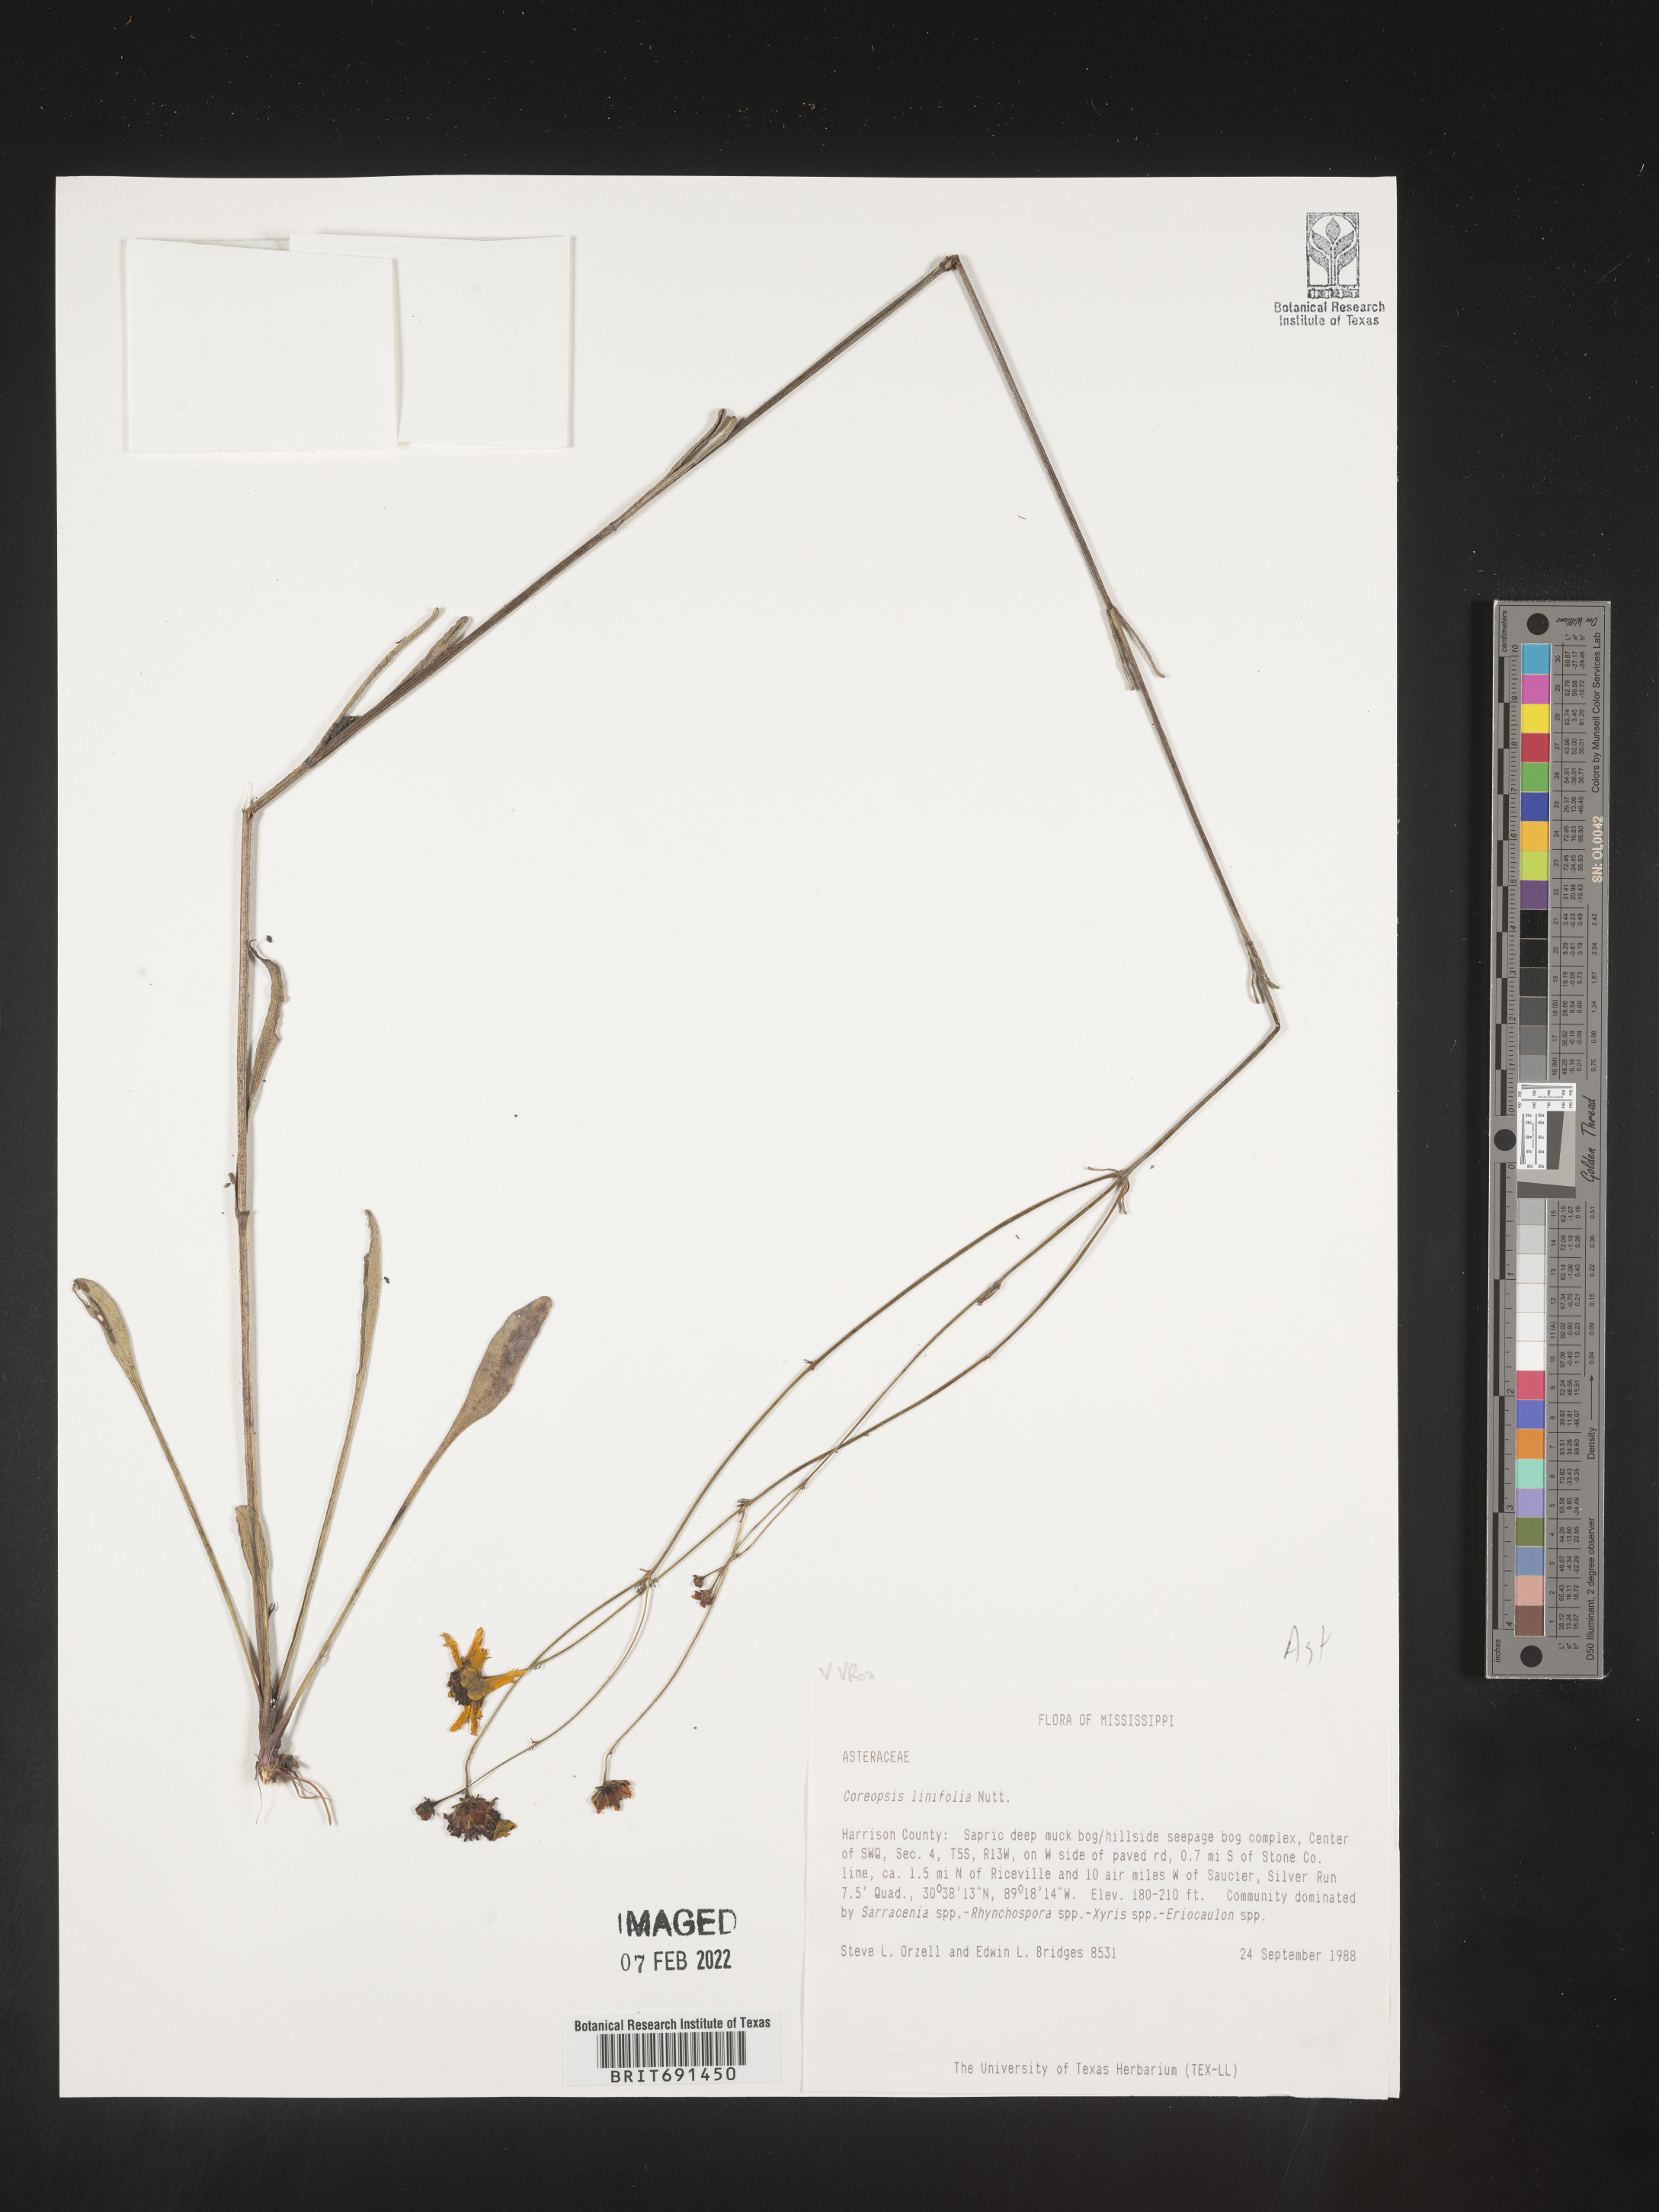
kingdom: Plantae
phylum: Tracheophyta
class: Magnoliopsida
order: Asterales
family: Asteraceae
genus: Coreopsis
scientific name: Coreopsis gladiata
